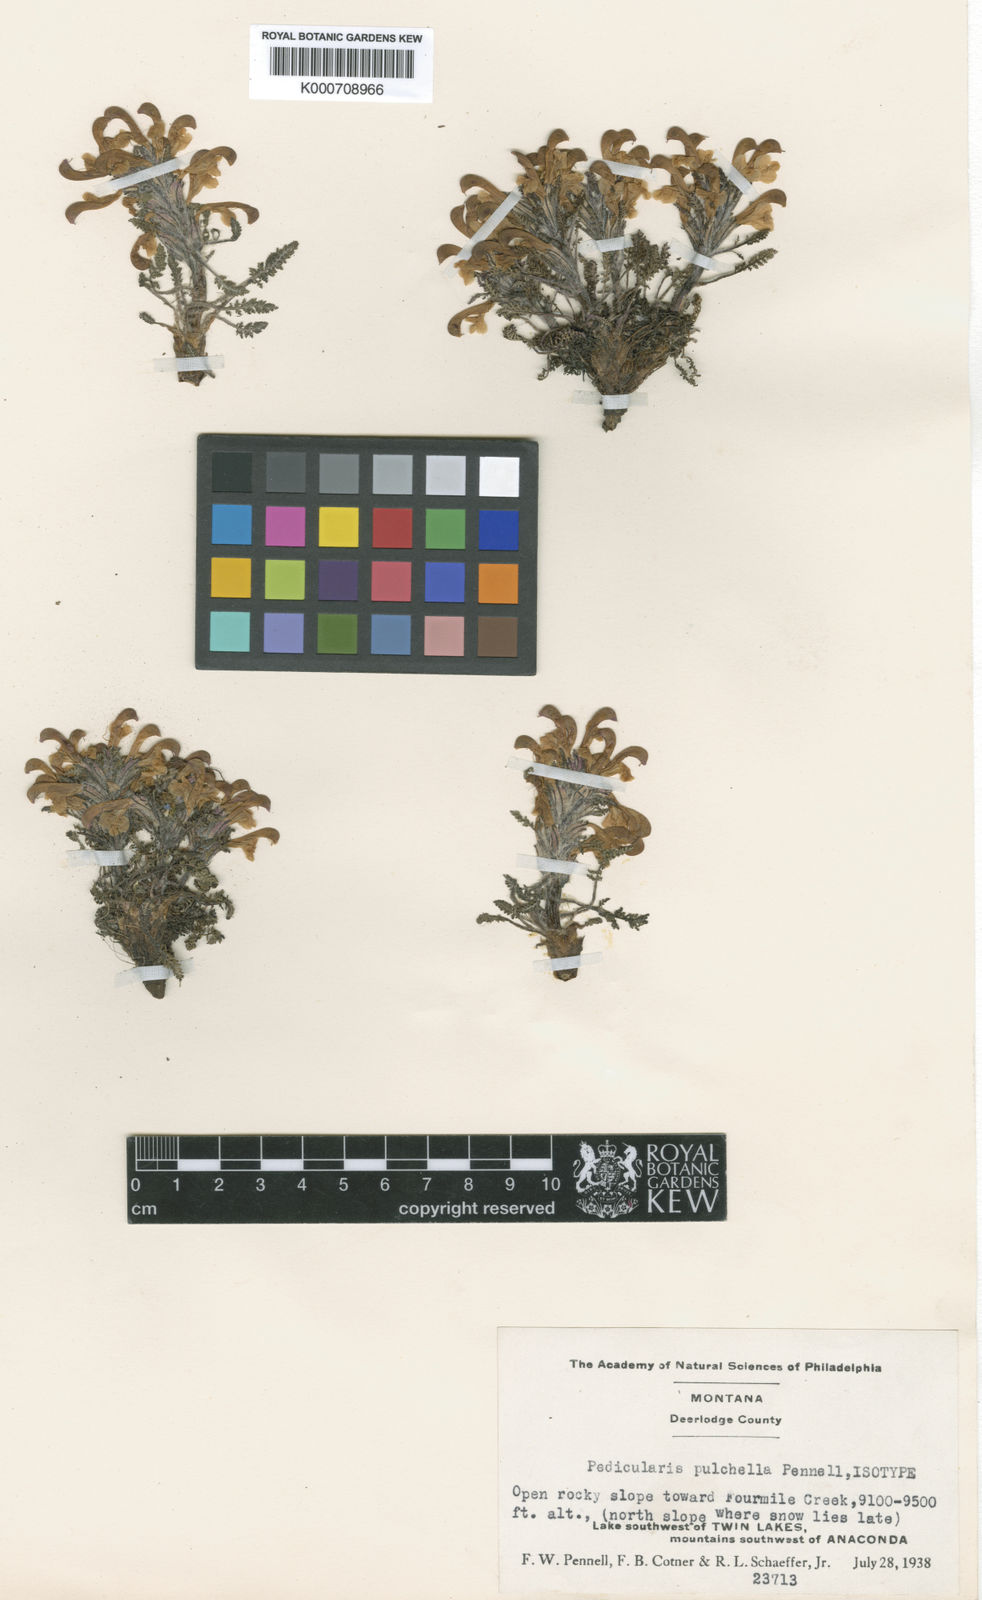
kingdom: Plantae
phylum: Tracheophyta
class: Magnoliopsida
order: Lamiales
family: Orobanchaceae
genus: Pedicularis
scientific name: Pedicularis pulchella
